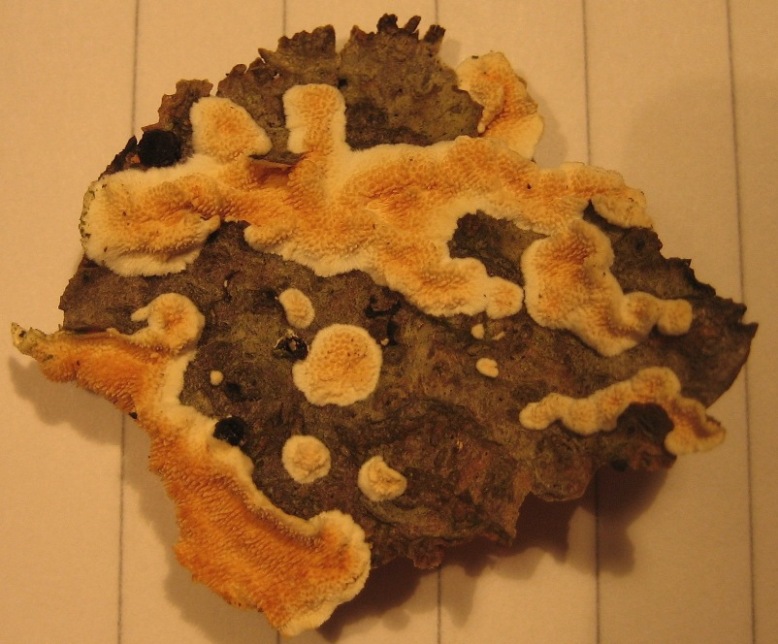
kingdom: Fungi
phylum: Basidiomycota
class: Agaricomycetes
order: Polyporales
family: Steccherinaceae
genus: Steccherinum
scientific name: Steccherinum ochraceum
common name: almindelig skønpig
